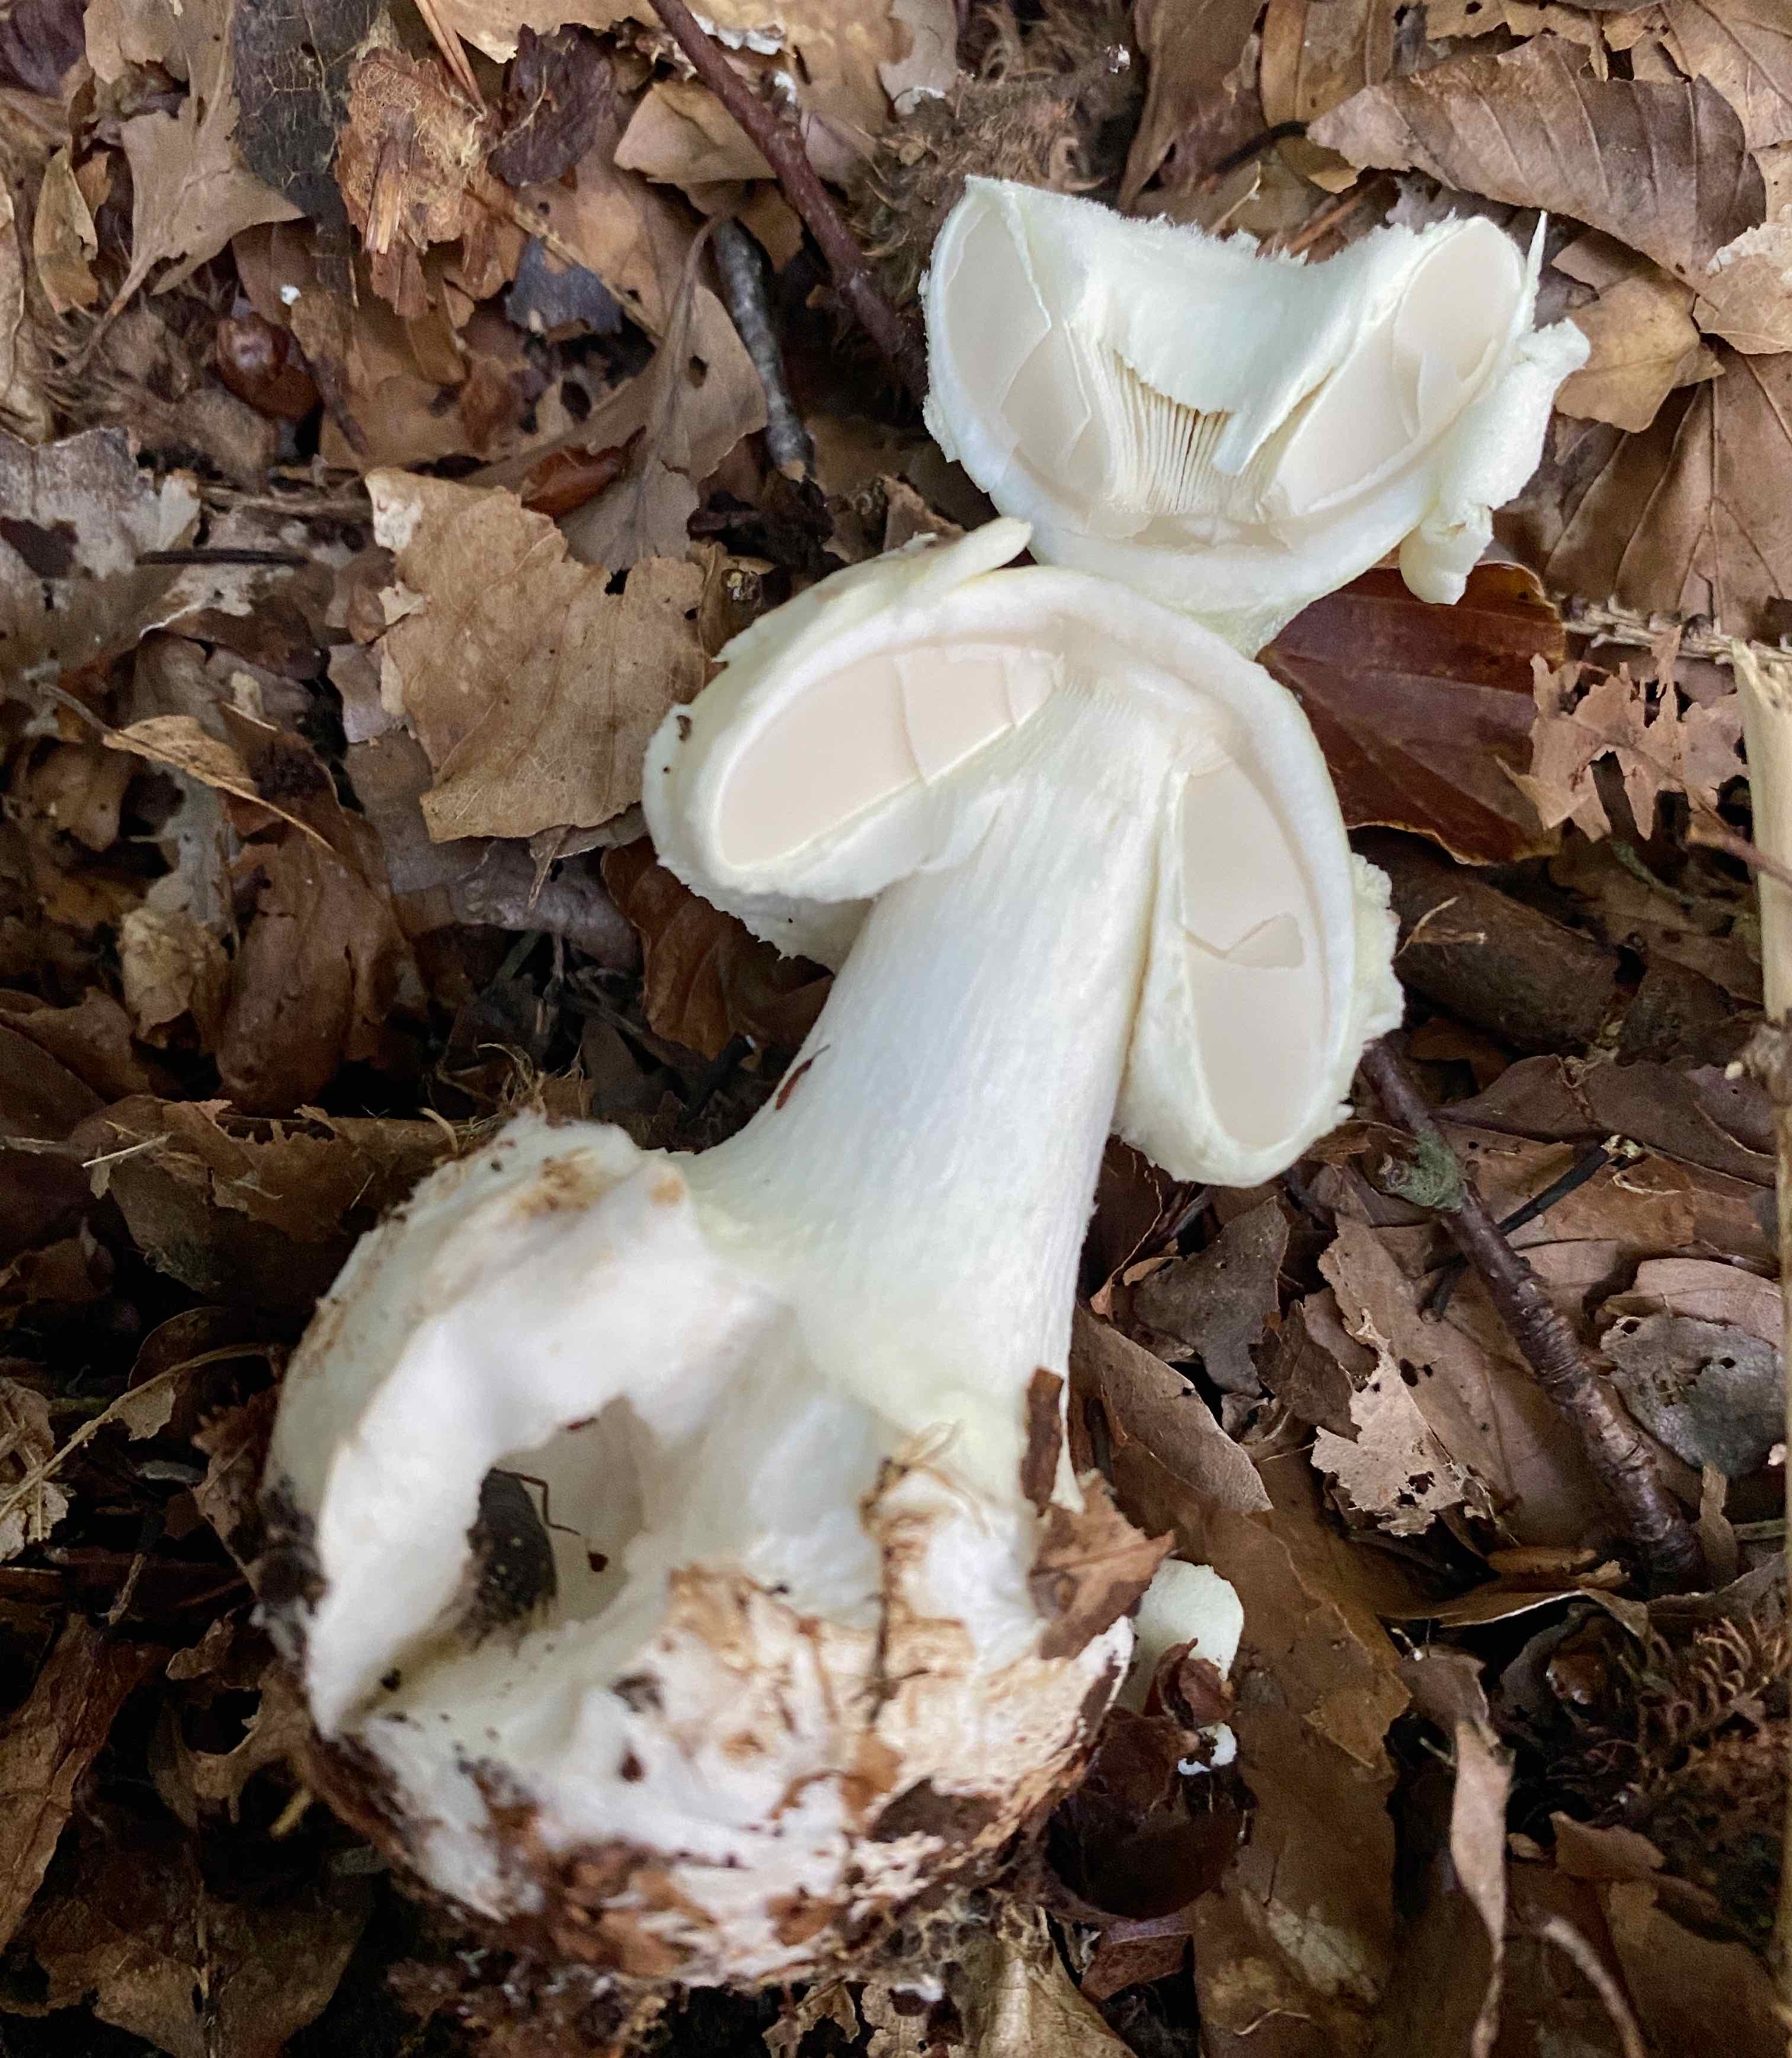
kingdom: Fungi
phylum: Basidiomycota
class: Agaricomycetes
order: Agaricales
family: Amanitaceae
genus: Amanita
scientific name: Amanita citrina
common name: kugleknoldet fluesvamp
